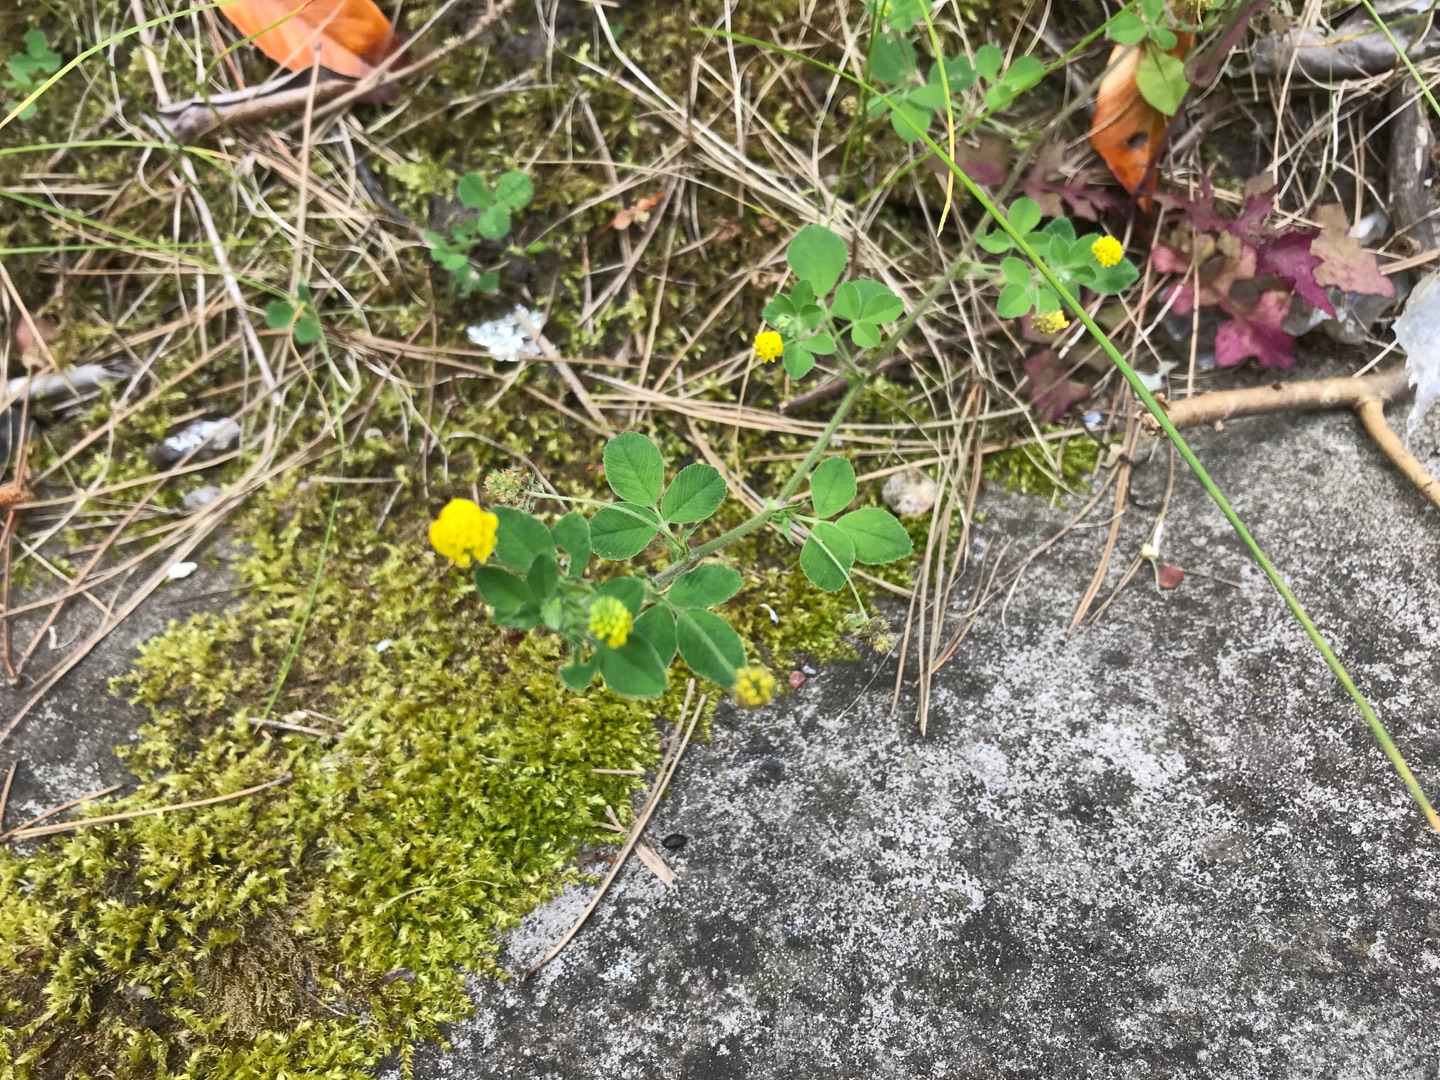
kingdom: Plantae
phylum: Tracheophyta
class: Magnoliopsida
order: Fabales
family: Fabaceae
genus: Medicago
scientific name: Medicago lupulina
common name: Humle-sneglebælg
